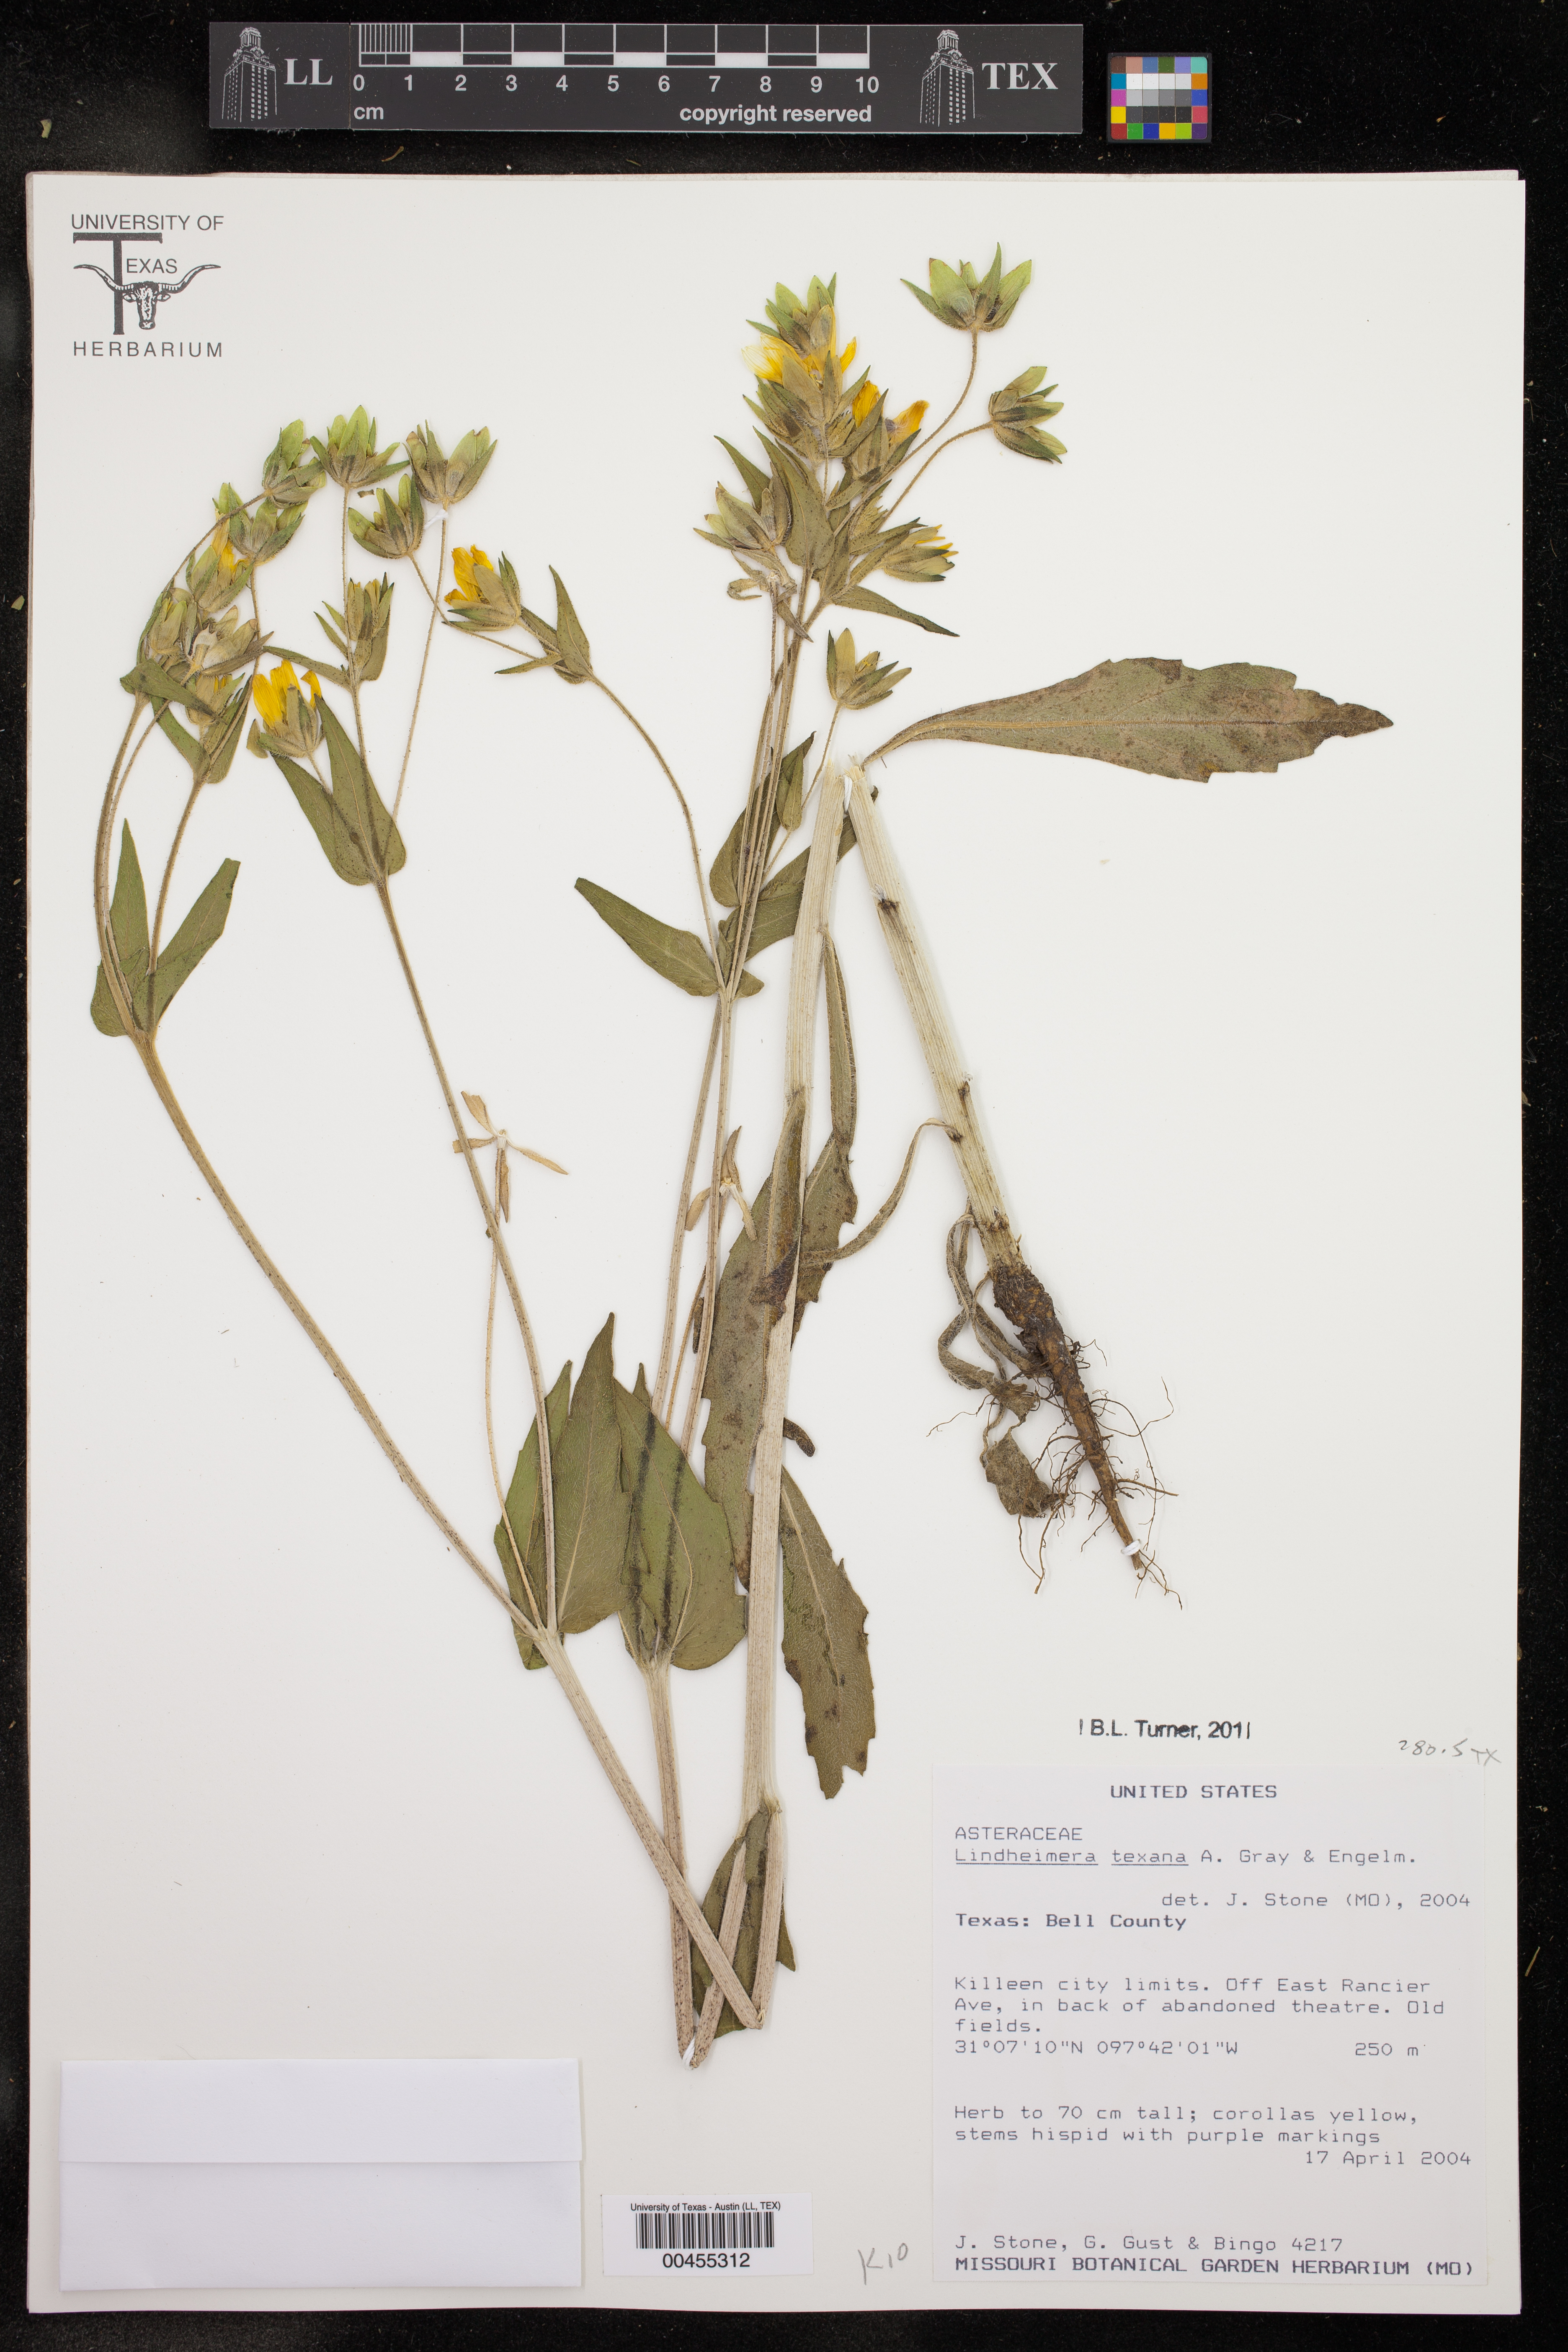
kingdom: Plantae
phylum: Tracheophyta
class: Magnoliopsida
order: Asterales
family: Asteraceae
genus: Lindheimera
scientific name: Lindheimera texana
